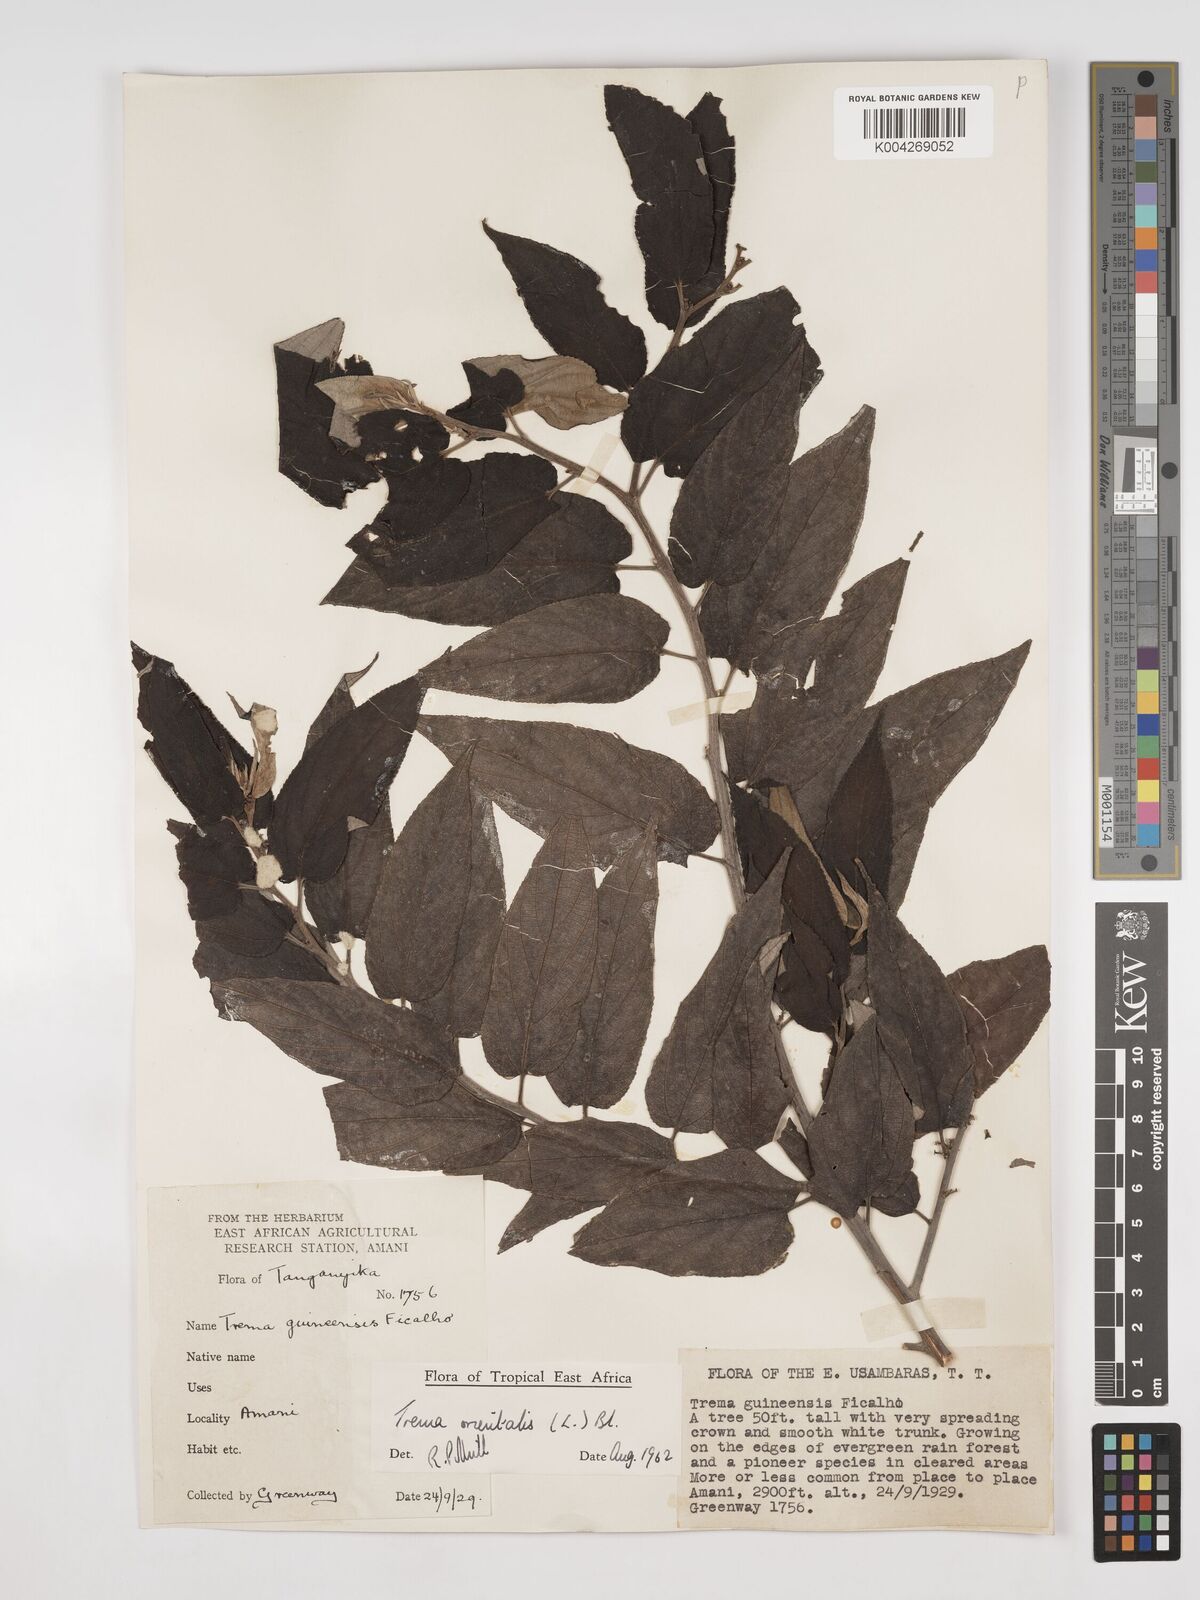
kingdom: Plantae
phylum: Tracheophyta
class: Magnoliopsida
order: Rosales
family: Cannabaceae
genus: Trema
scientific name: Trema orientale
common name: Indian charcoal tree
